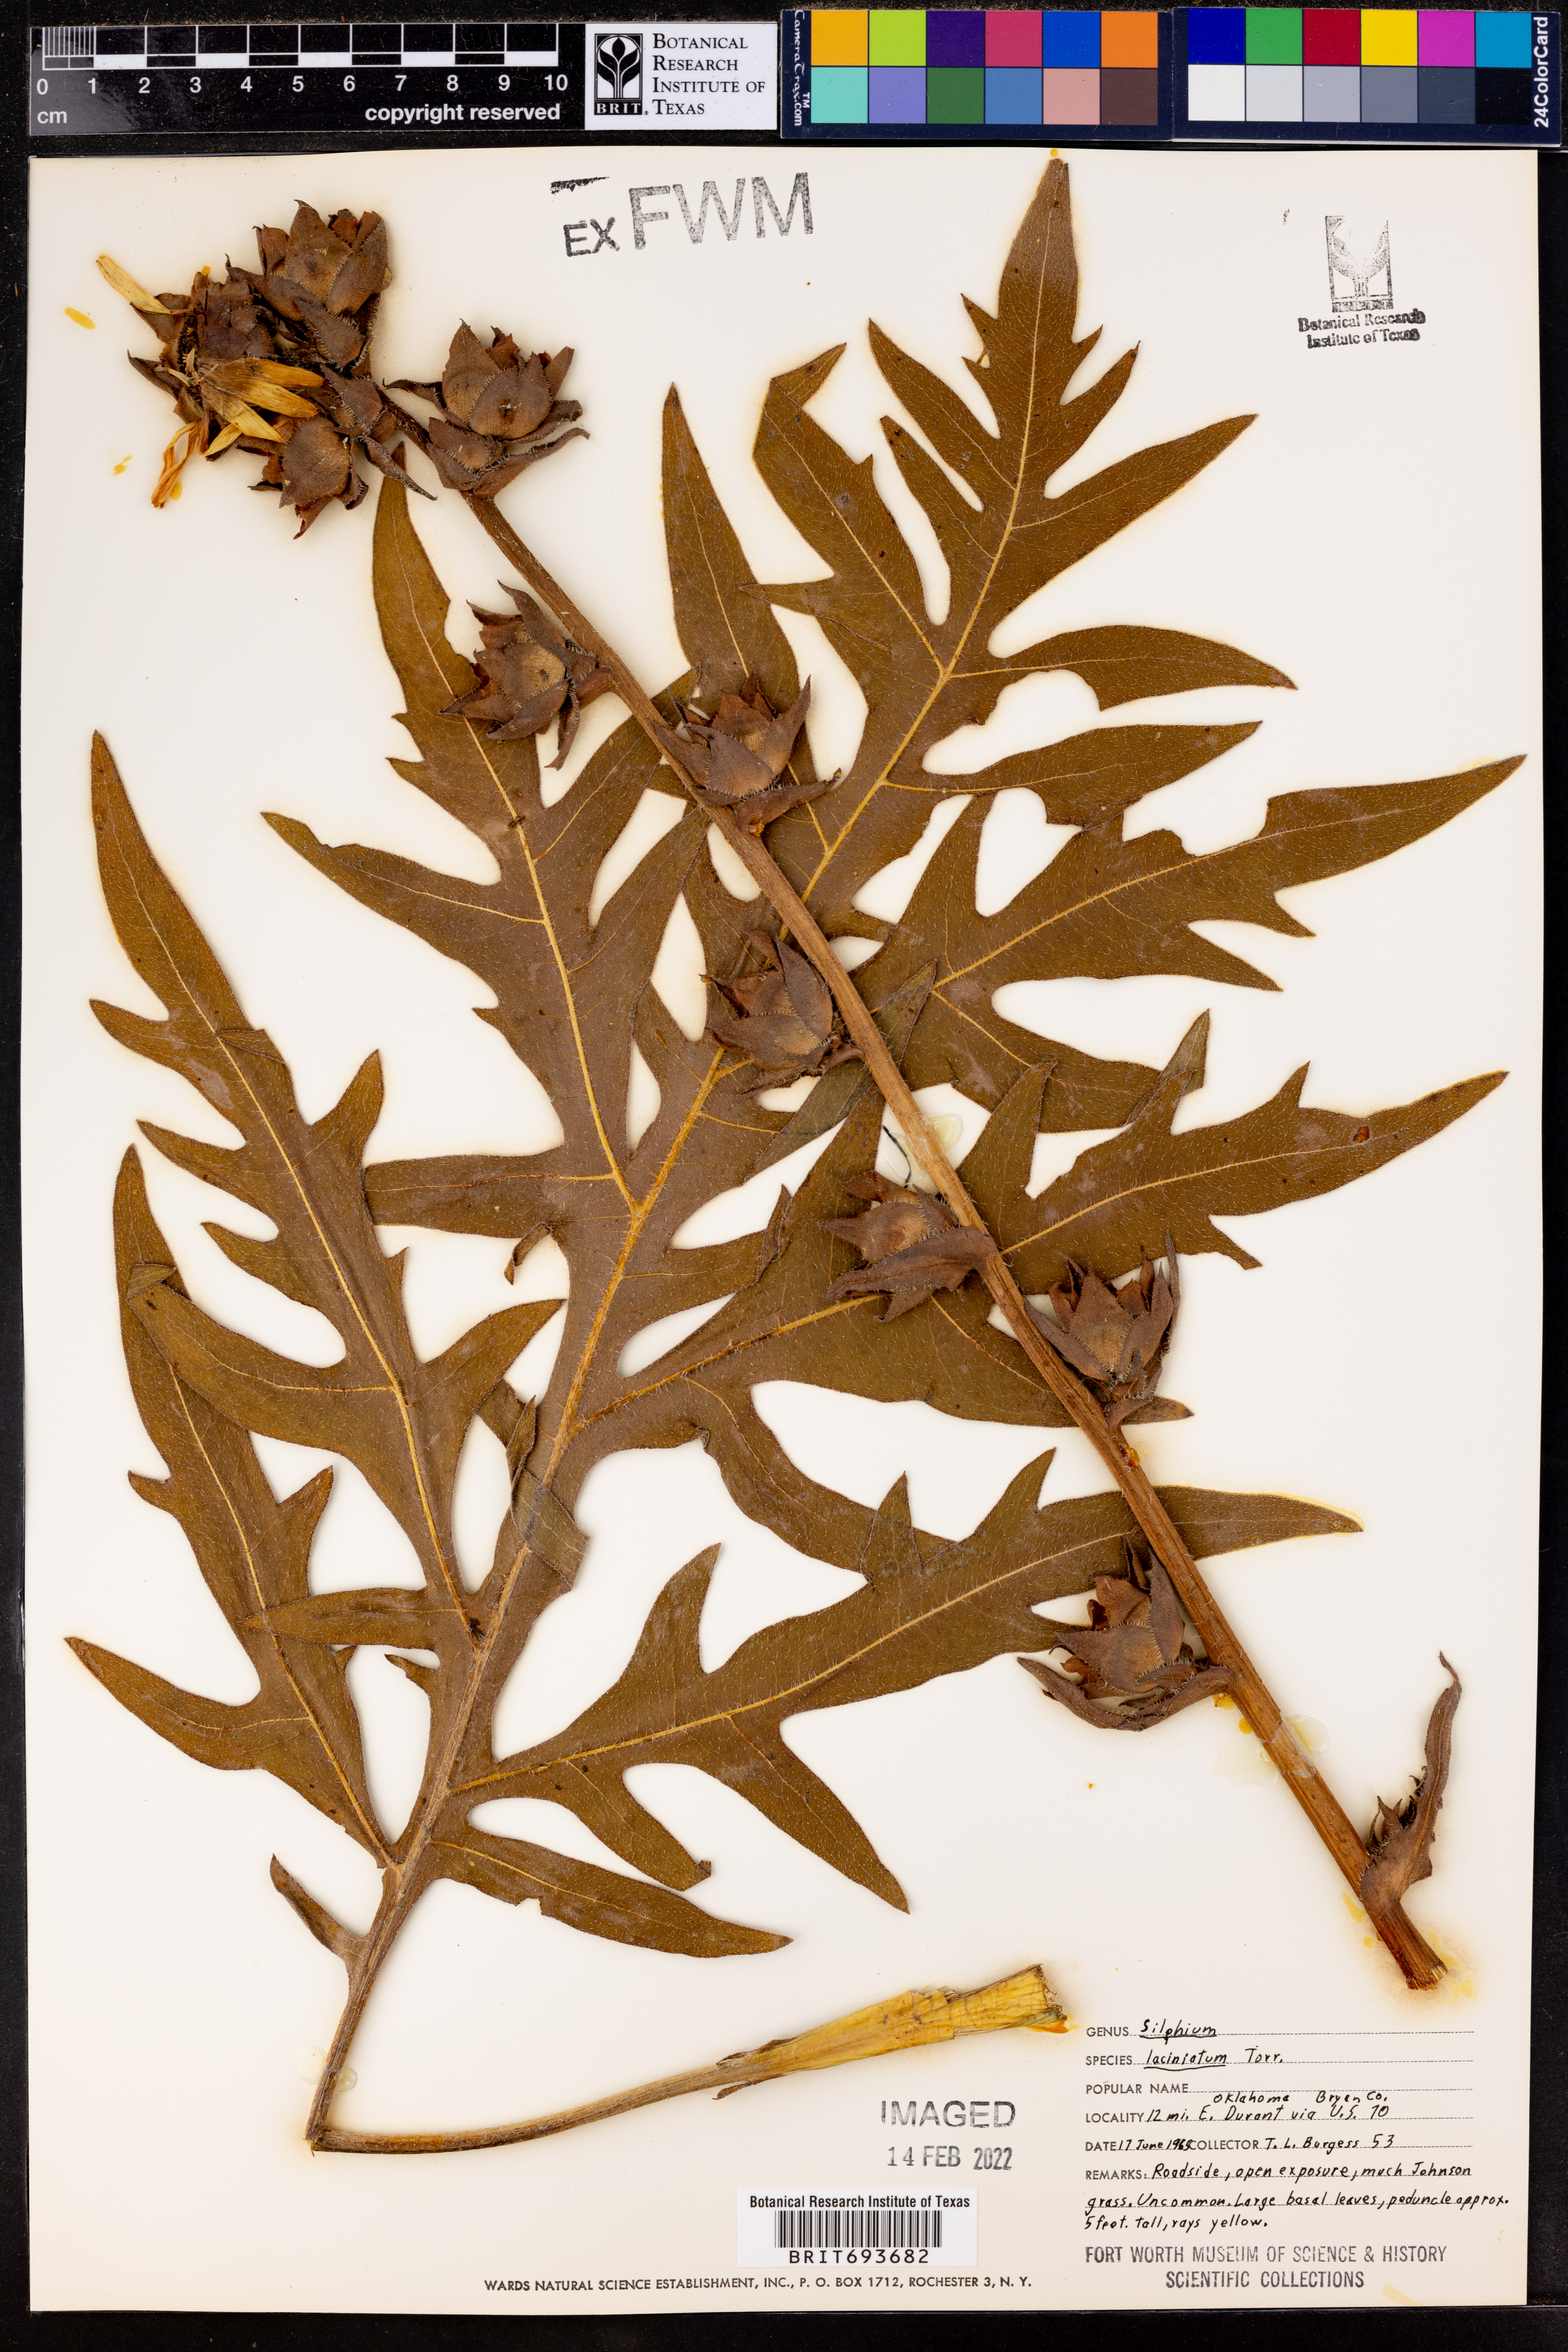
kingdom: Plantae
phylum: Tracheophyta
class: Magnoliopsida
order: Asterales
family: Asteraceae
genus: Silphium
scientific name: Silphium laciniatum
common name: Polarplant
